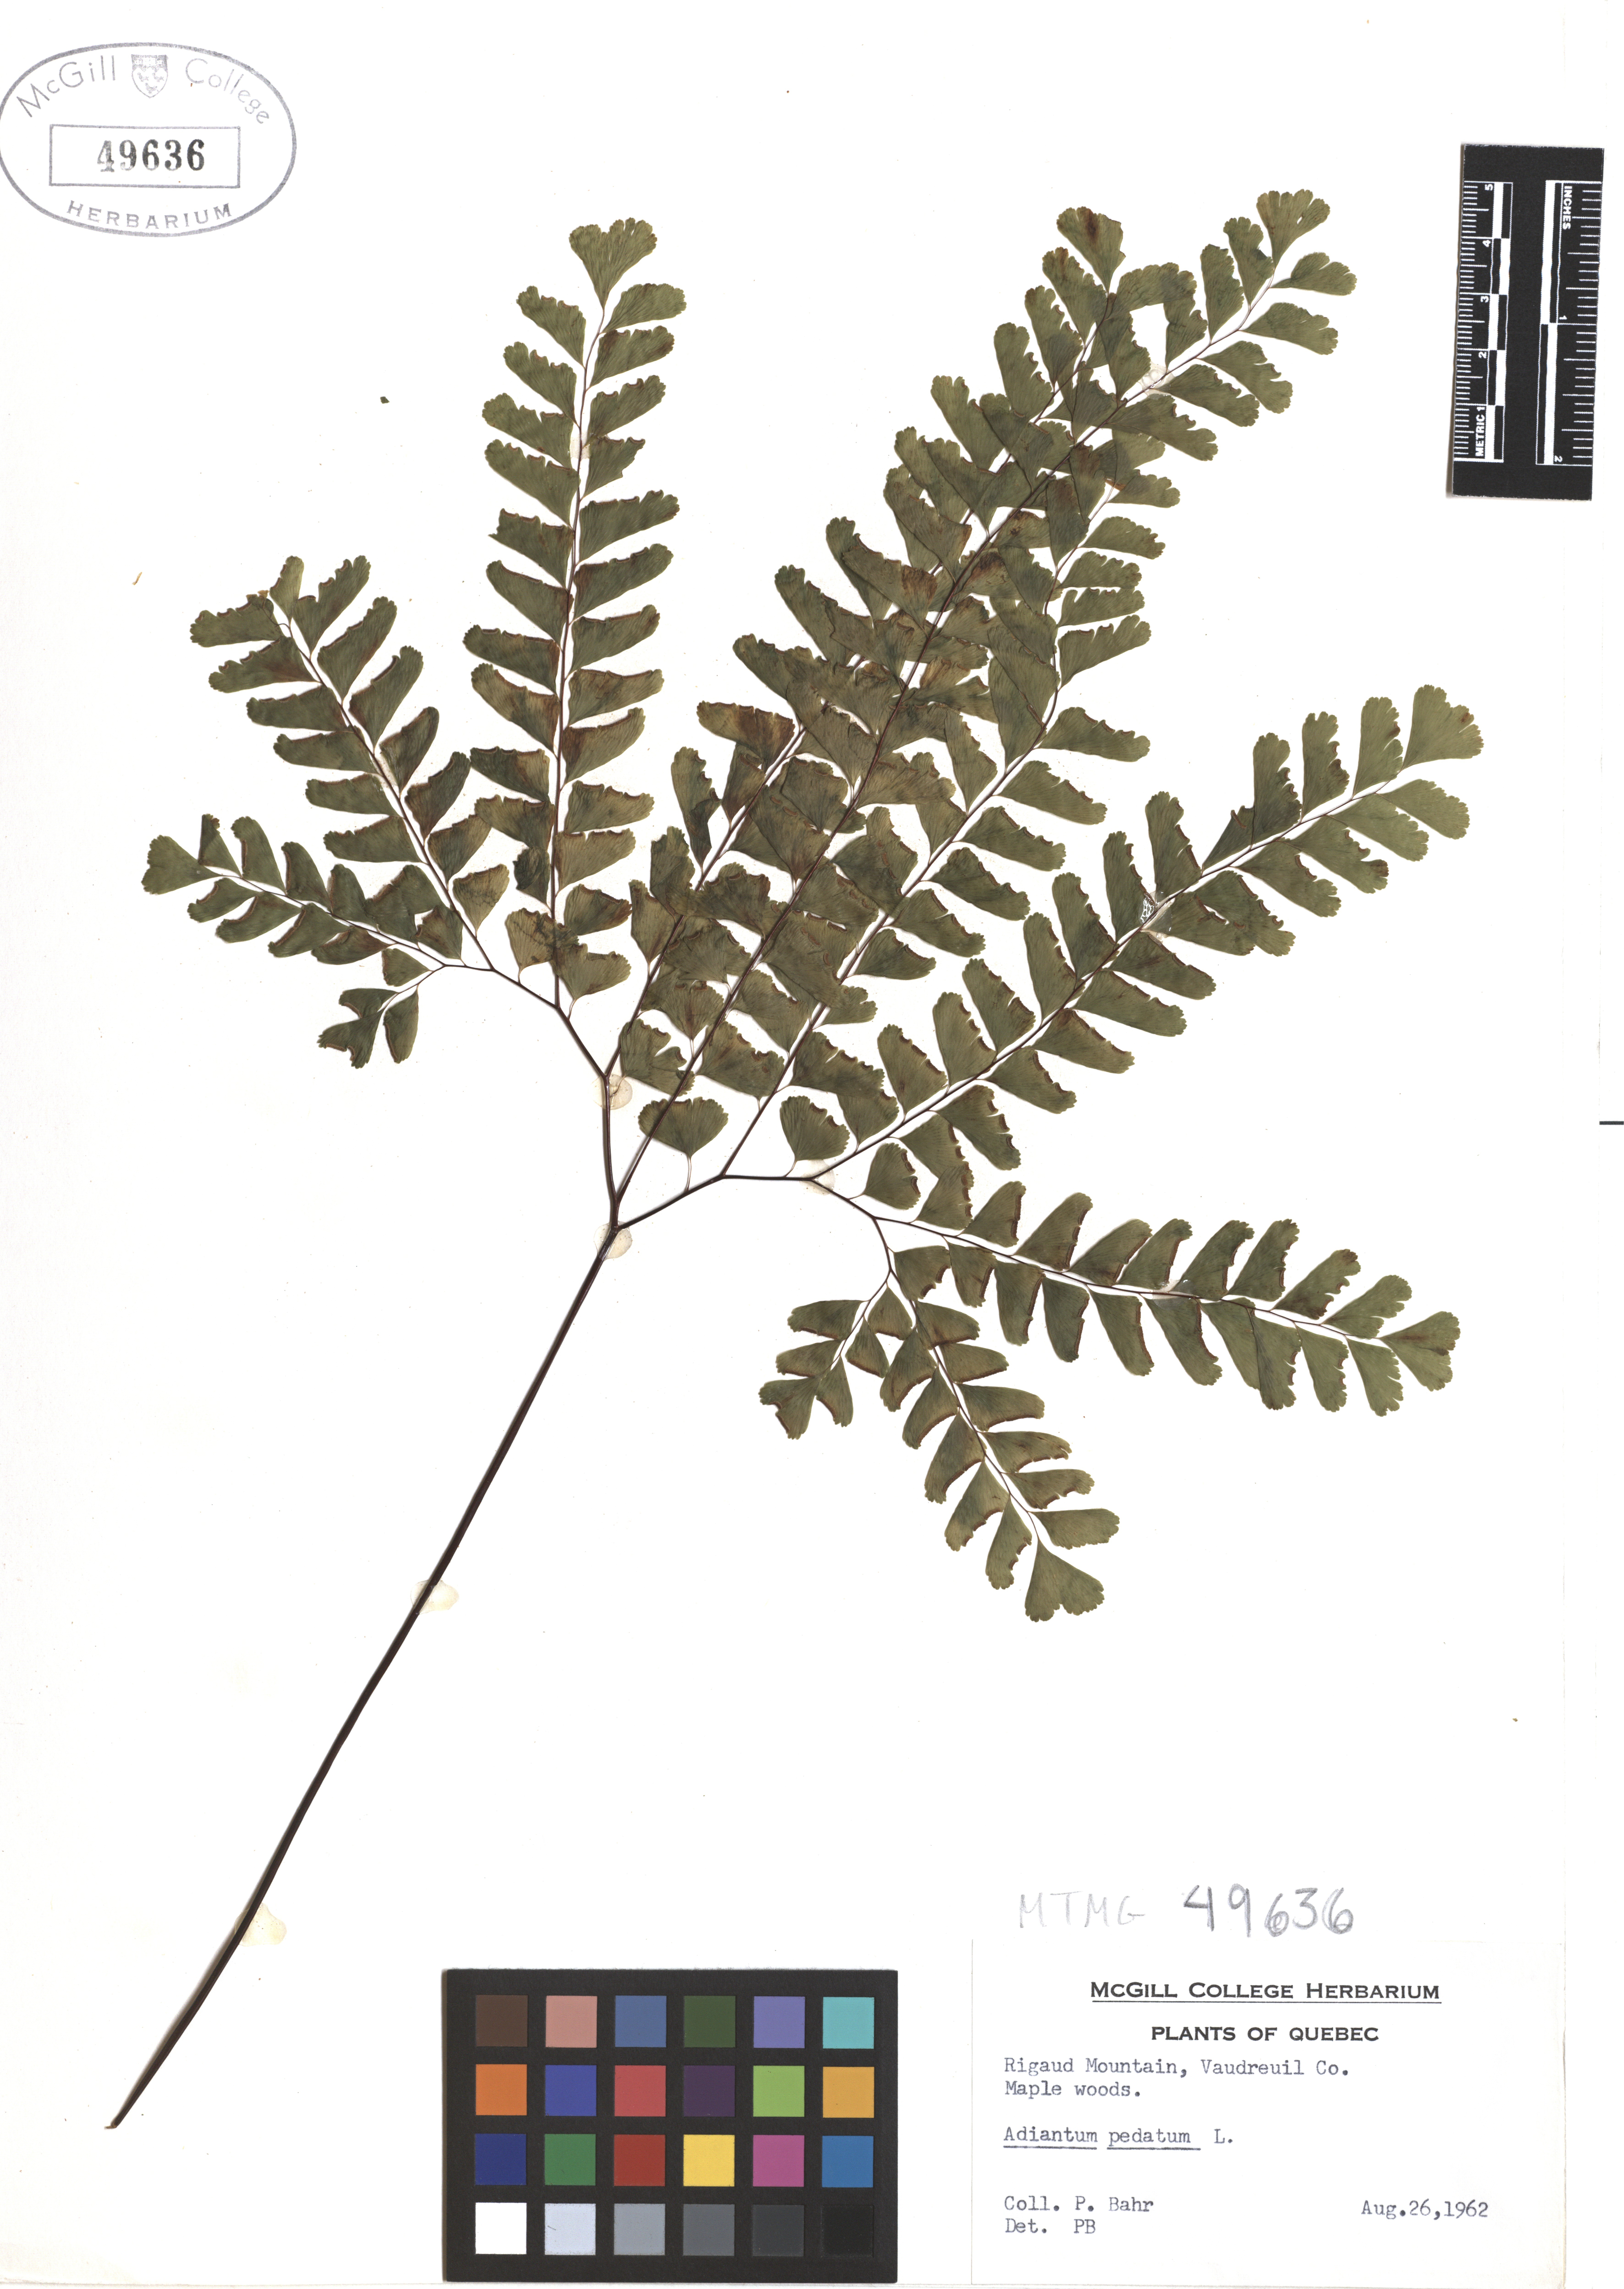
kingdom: Plantae
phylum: Tracheophyta
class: Polypodiopsida
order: Polypodiales
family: Pteridaceae
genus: Adiantum
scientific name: Adiantum pedatum
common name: Five-finger fern
